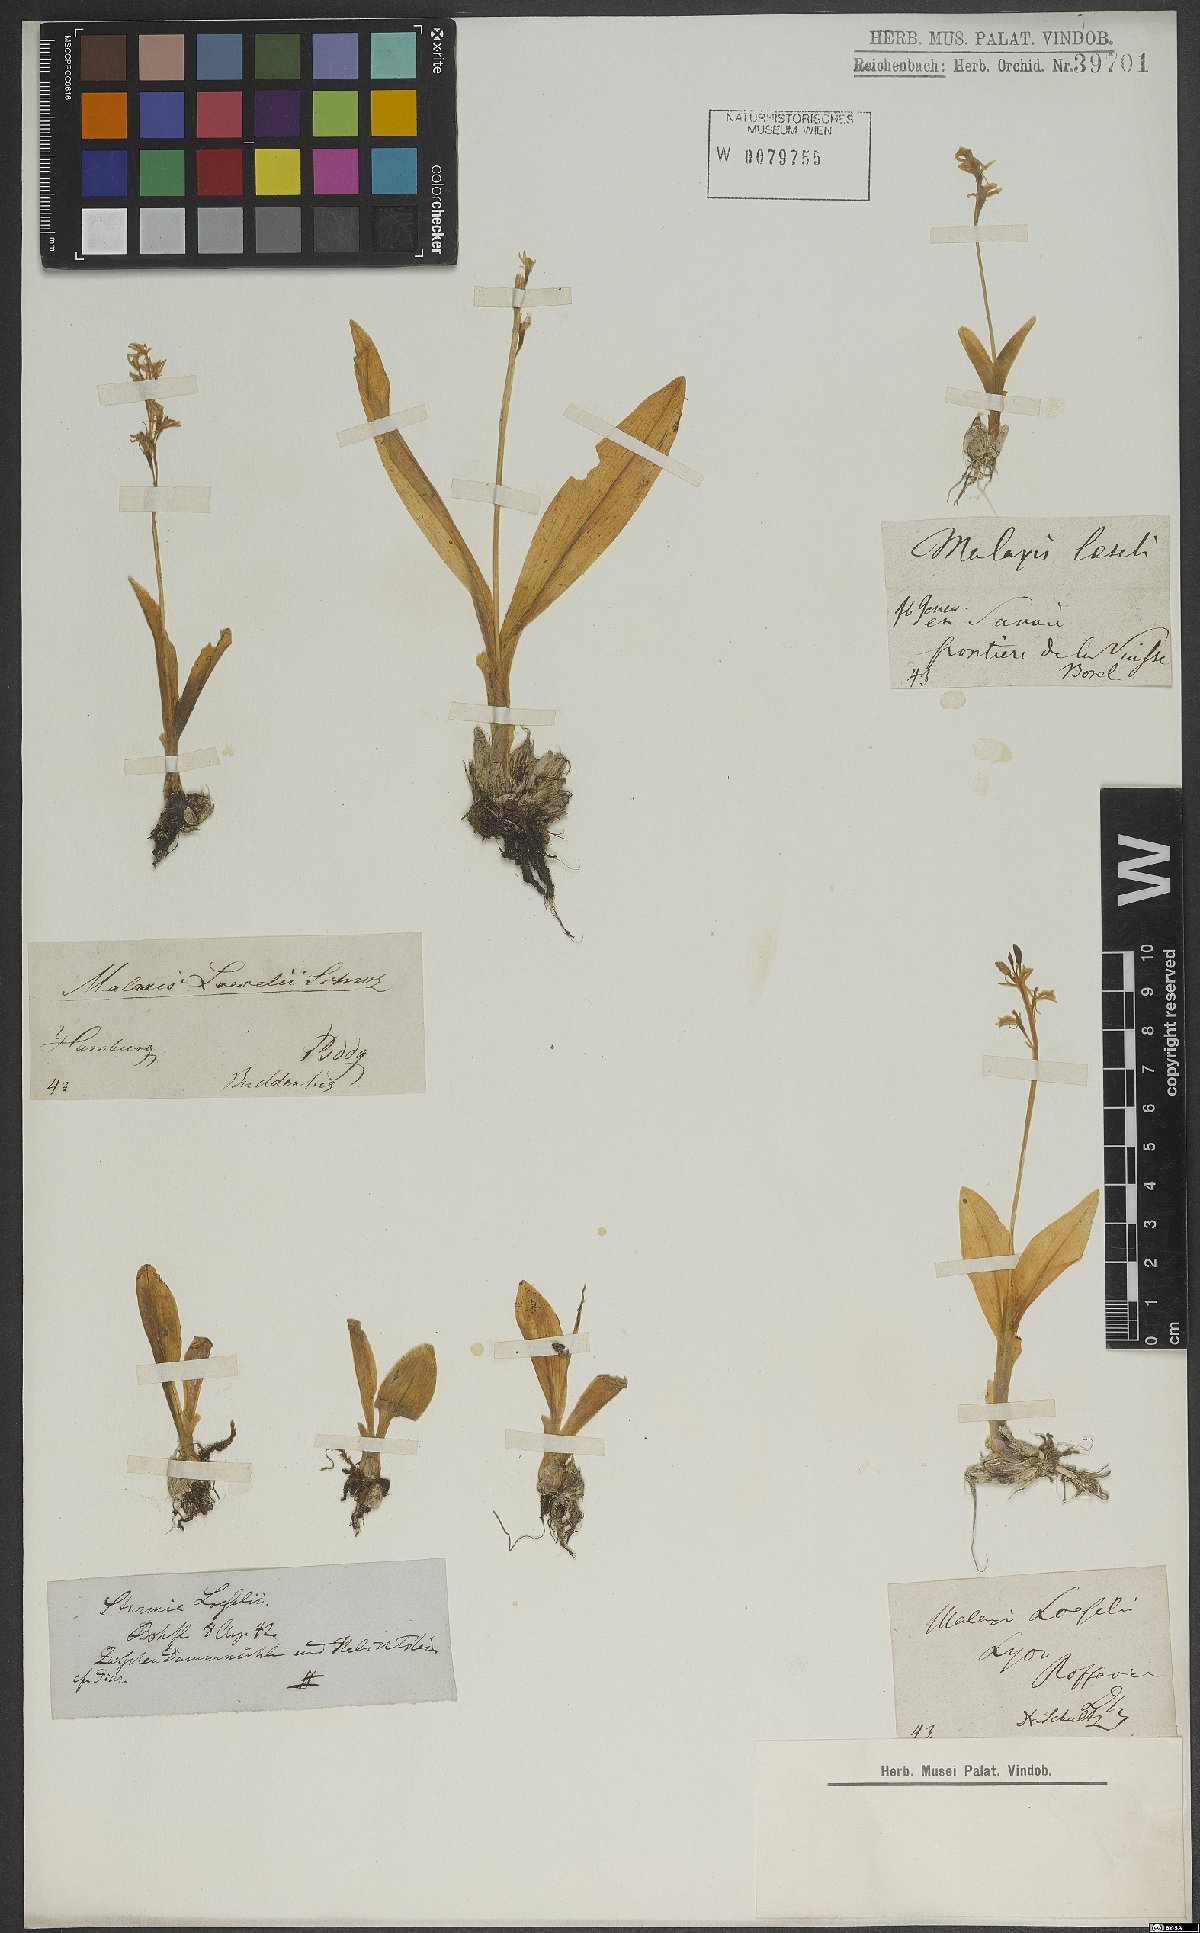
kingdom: Animalia
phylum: Arthropoda
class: Insecta
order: Coleoptera
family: Curculionidae
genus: Liparis
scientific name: Liparis loeselii
